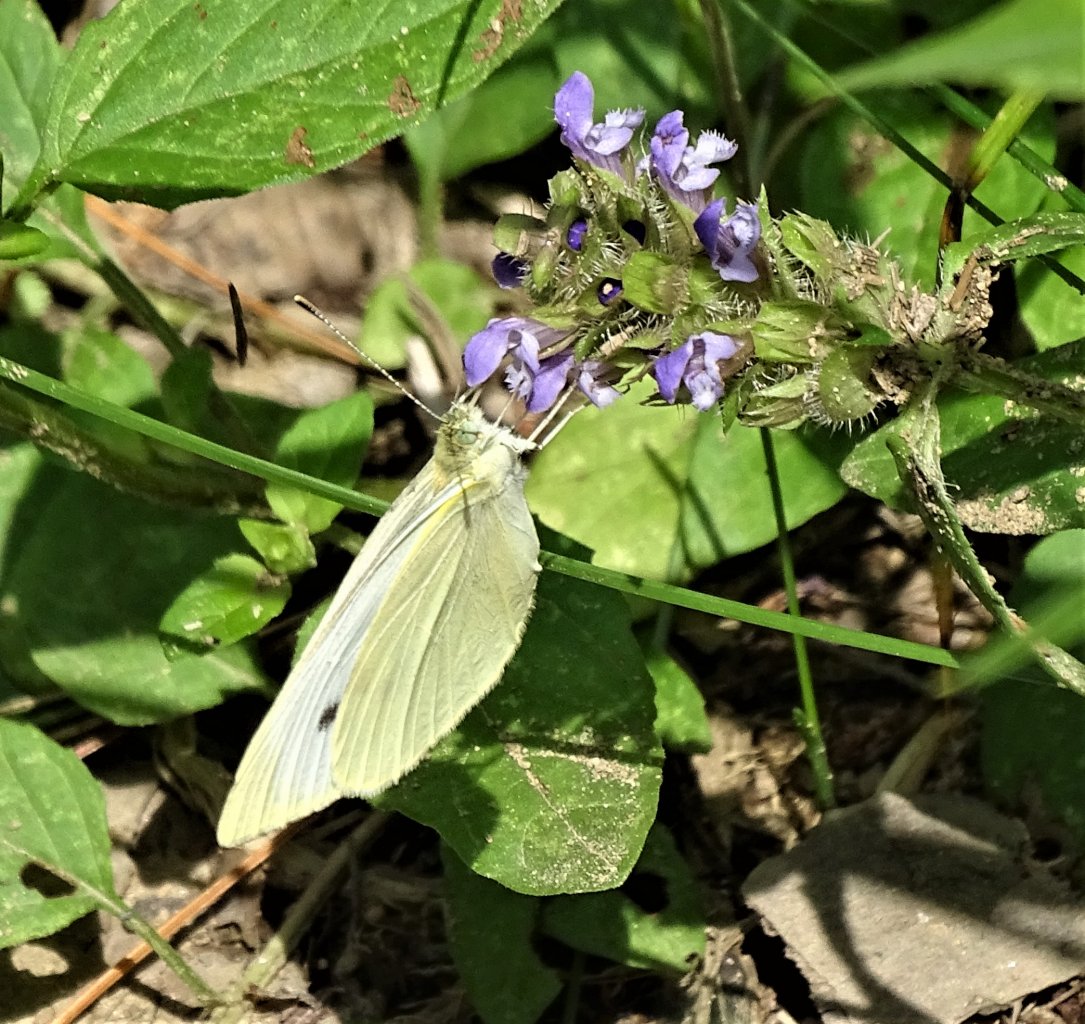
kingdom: Animalia
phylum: Arthropoda
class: Insecta
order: Lepidoptera
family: Pieridae
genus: Pieris
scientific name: Pieris rapae
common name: Cabbage White
